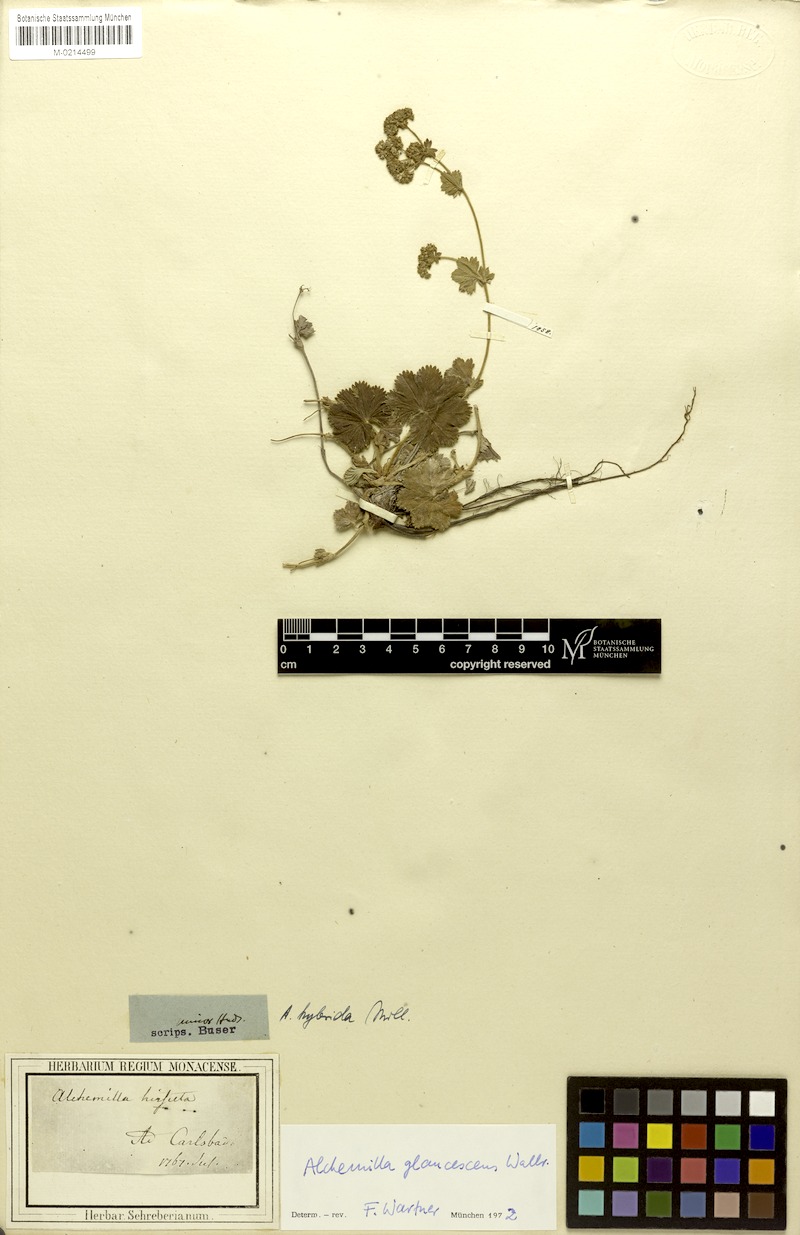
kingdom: Plantae
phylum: Tracheophyta
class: Magnoliopsida
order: Rosales
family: Rosaceae
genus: Alchemilla
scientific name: Alchemilla glaucescens
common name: Silky lady's mantle
